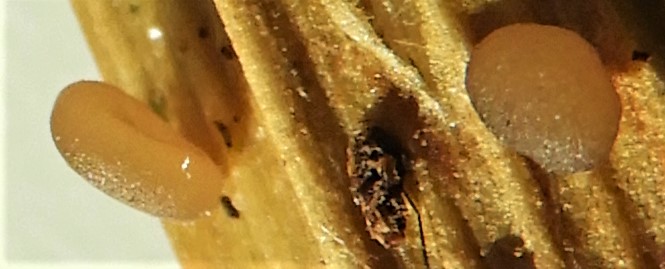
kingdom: Fungi
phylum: Basidiomycota
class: Agaricomycetes
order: Agaricales
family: Typhulaceae
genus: Sclerotium
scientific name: Sclerotium
